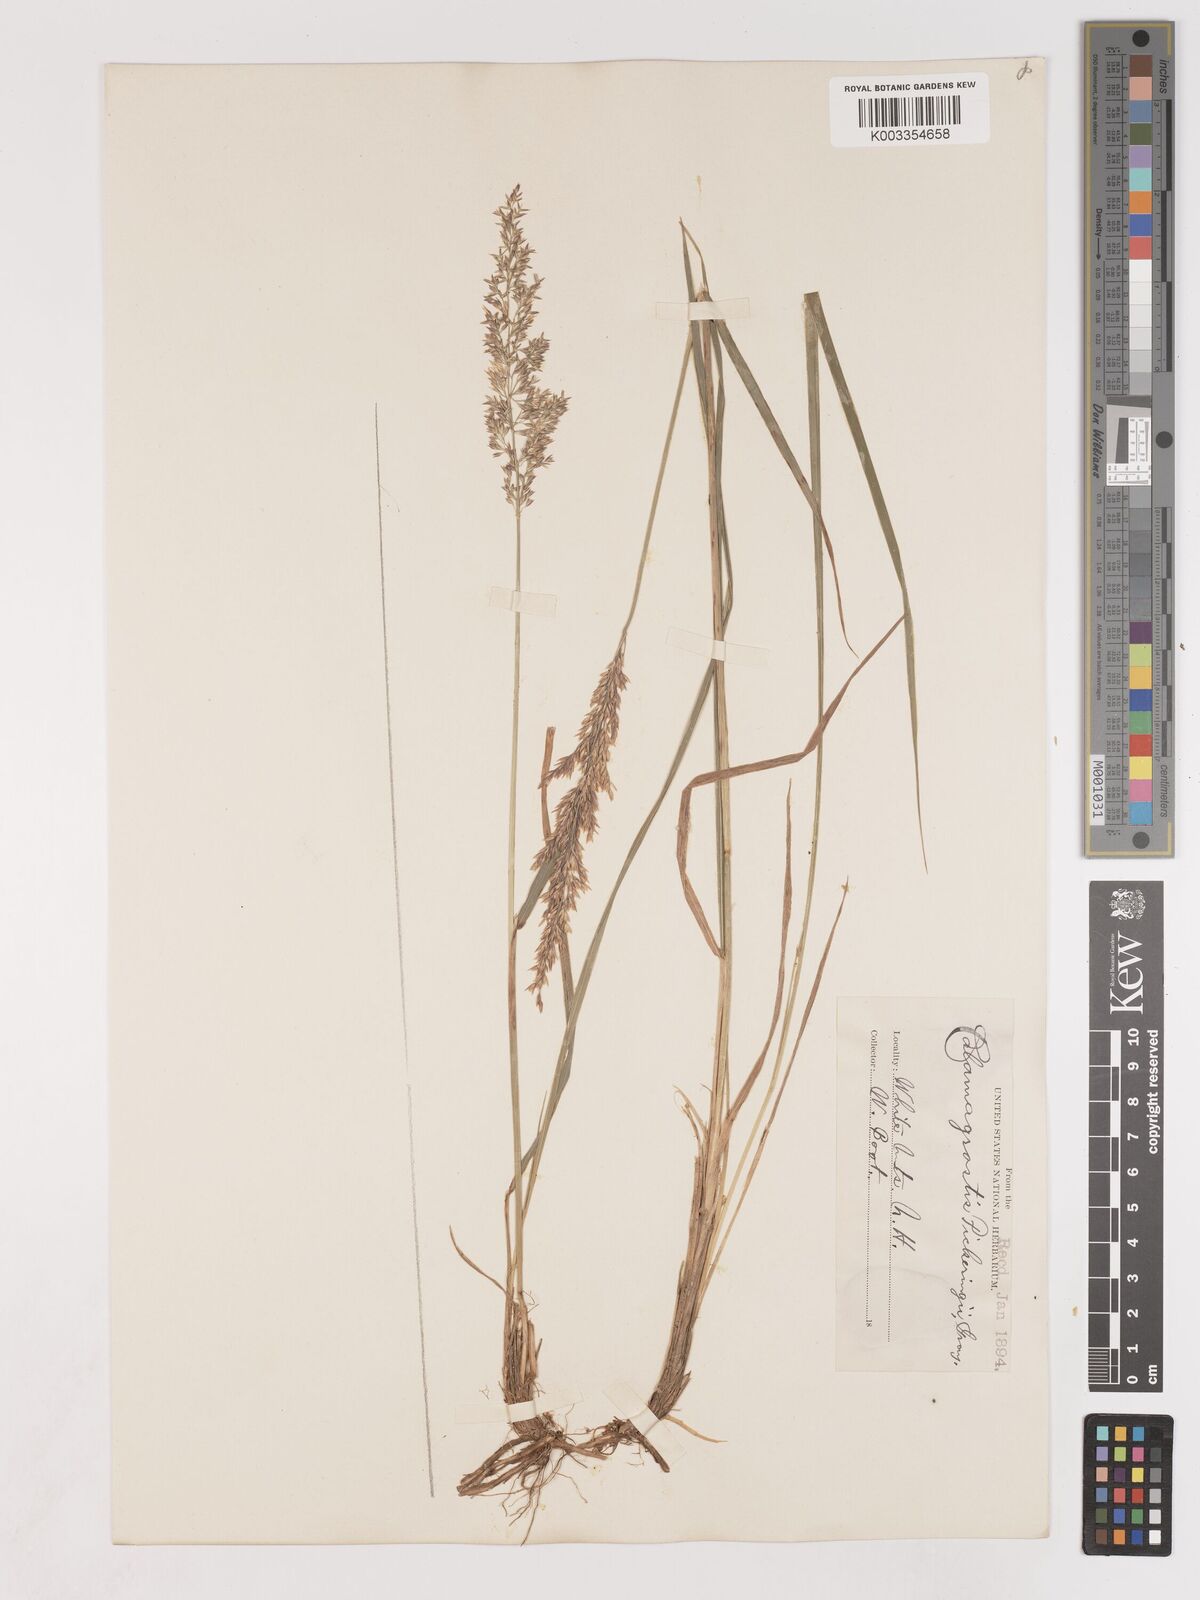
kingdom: Plantae
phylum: Tracheophyta
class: Liliopsida
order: Poales
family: Poaceae
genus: Calamagrostis
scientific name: Calamagrostis pickeringii
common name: Pickering's reed bentgrass
